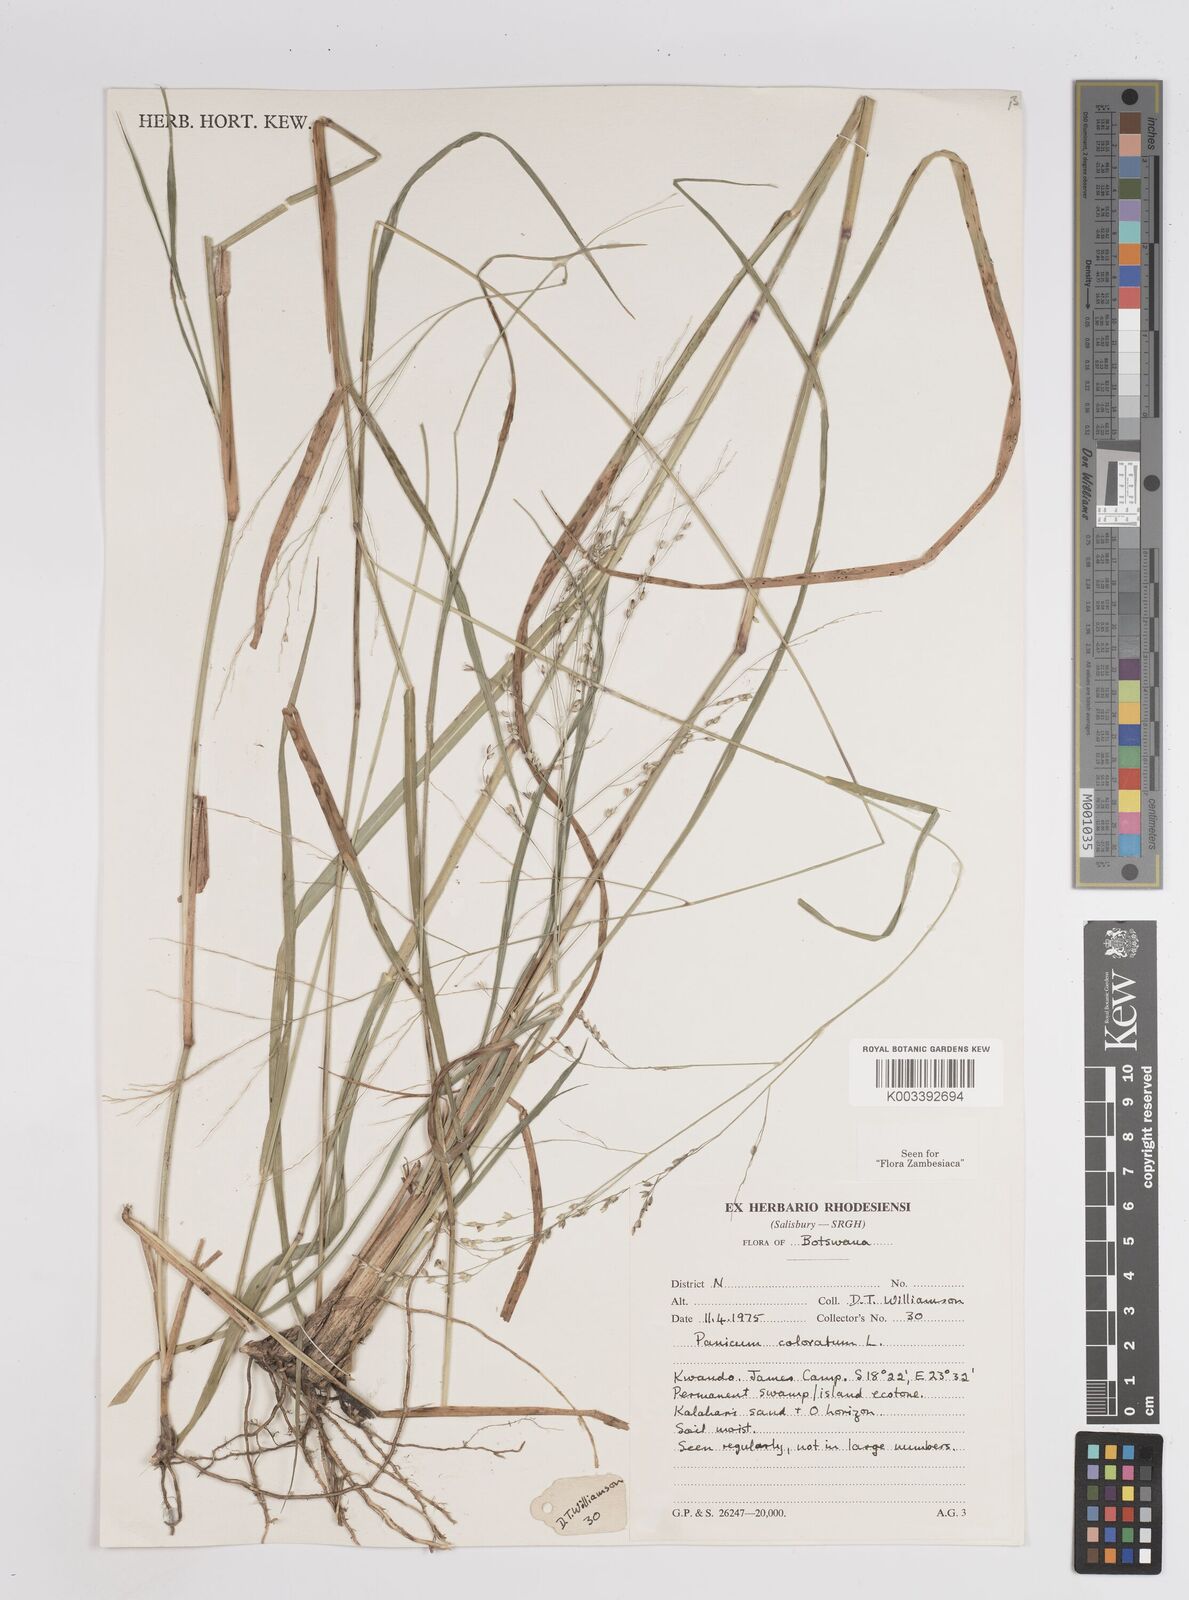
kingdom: Plantae
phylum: Tracheophyta
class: Liliopsida
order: Poales
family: Poaceae
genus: Panicum
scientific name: Panicum coloratum
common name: Kleingrass
